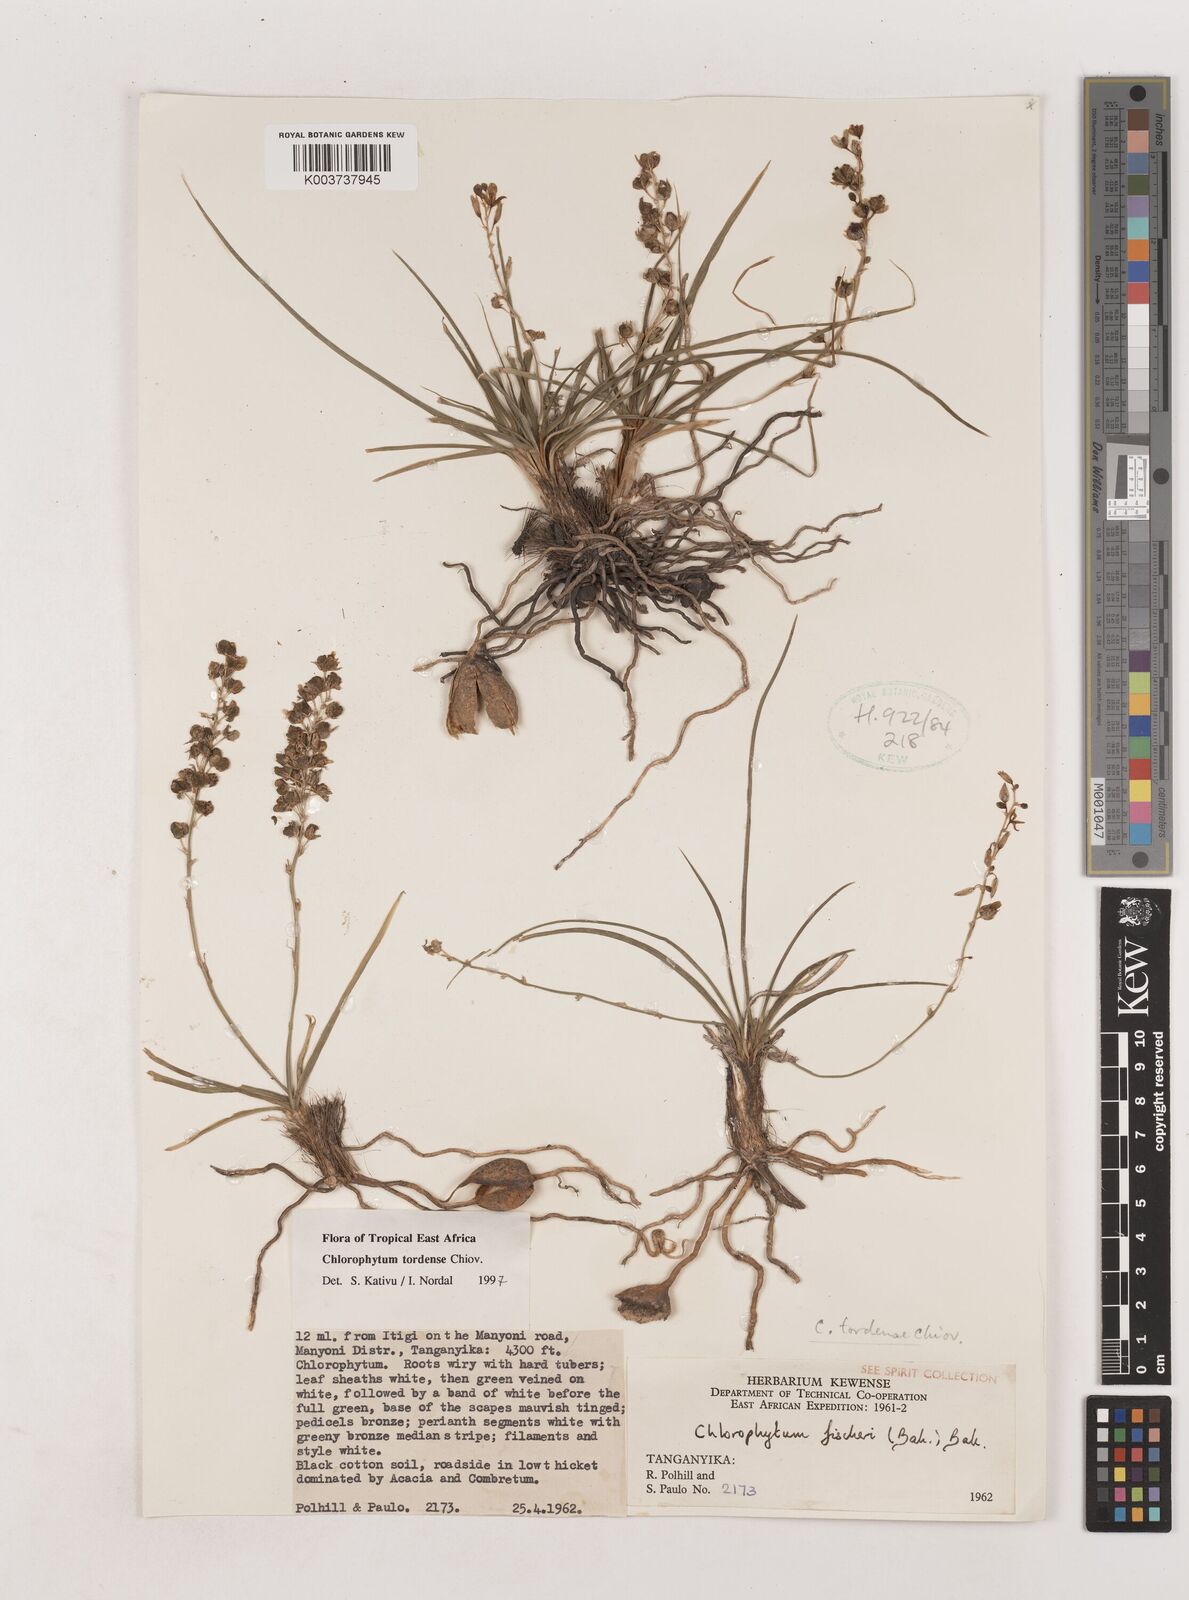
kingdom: Plantae
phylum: Tracheophyta
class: Liliopsida
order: Asparagales
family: Asparagaceae
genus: Chlorophytum
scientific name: Chlorophytum tordense
